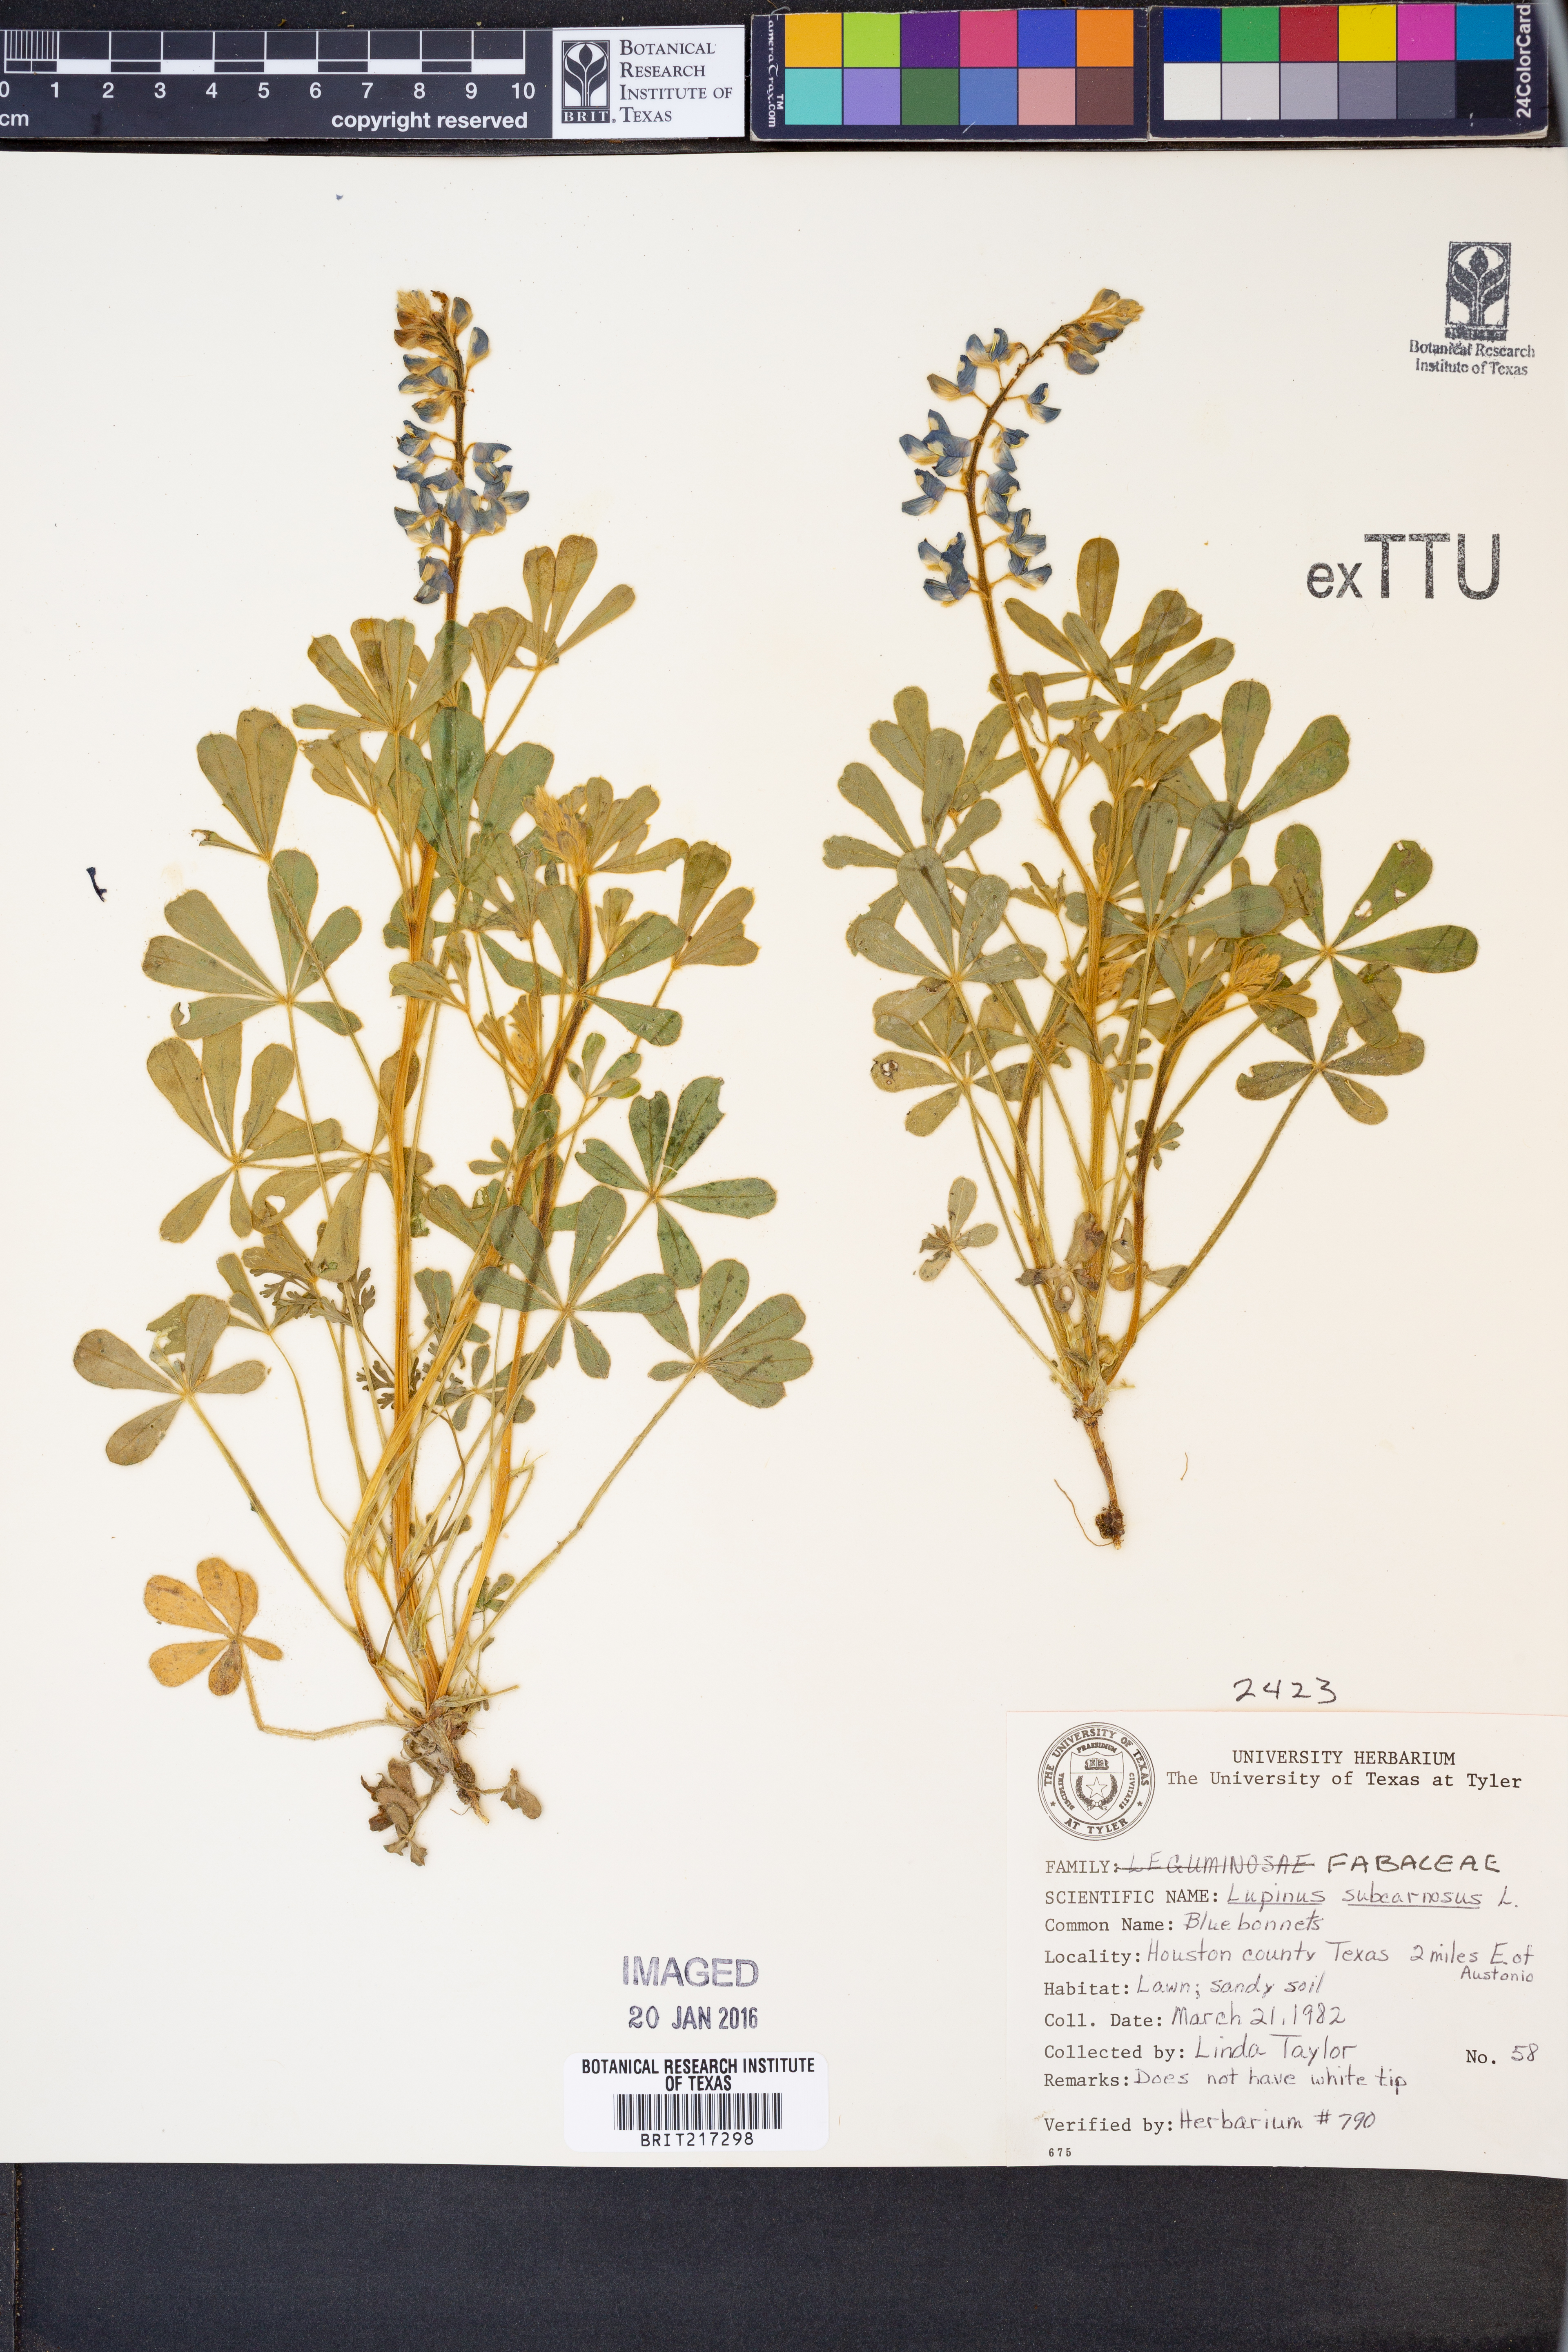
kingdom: Plantae
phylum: Tracheophyta
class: Magnoliopsida
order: Fabales
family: Fabaceae
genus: Lupinus
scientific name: Lupinus subcarnosus
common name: Texas bluebonnet
